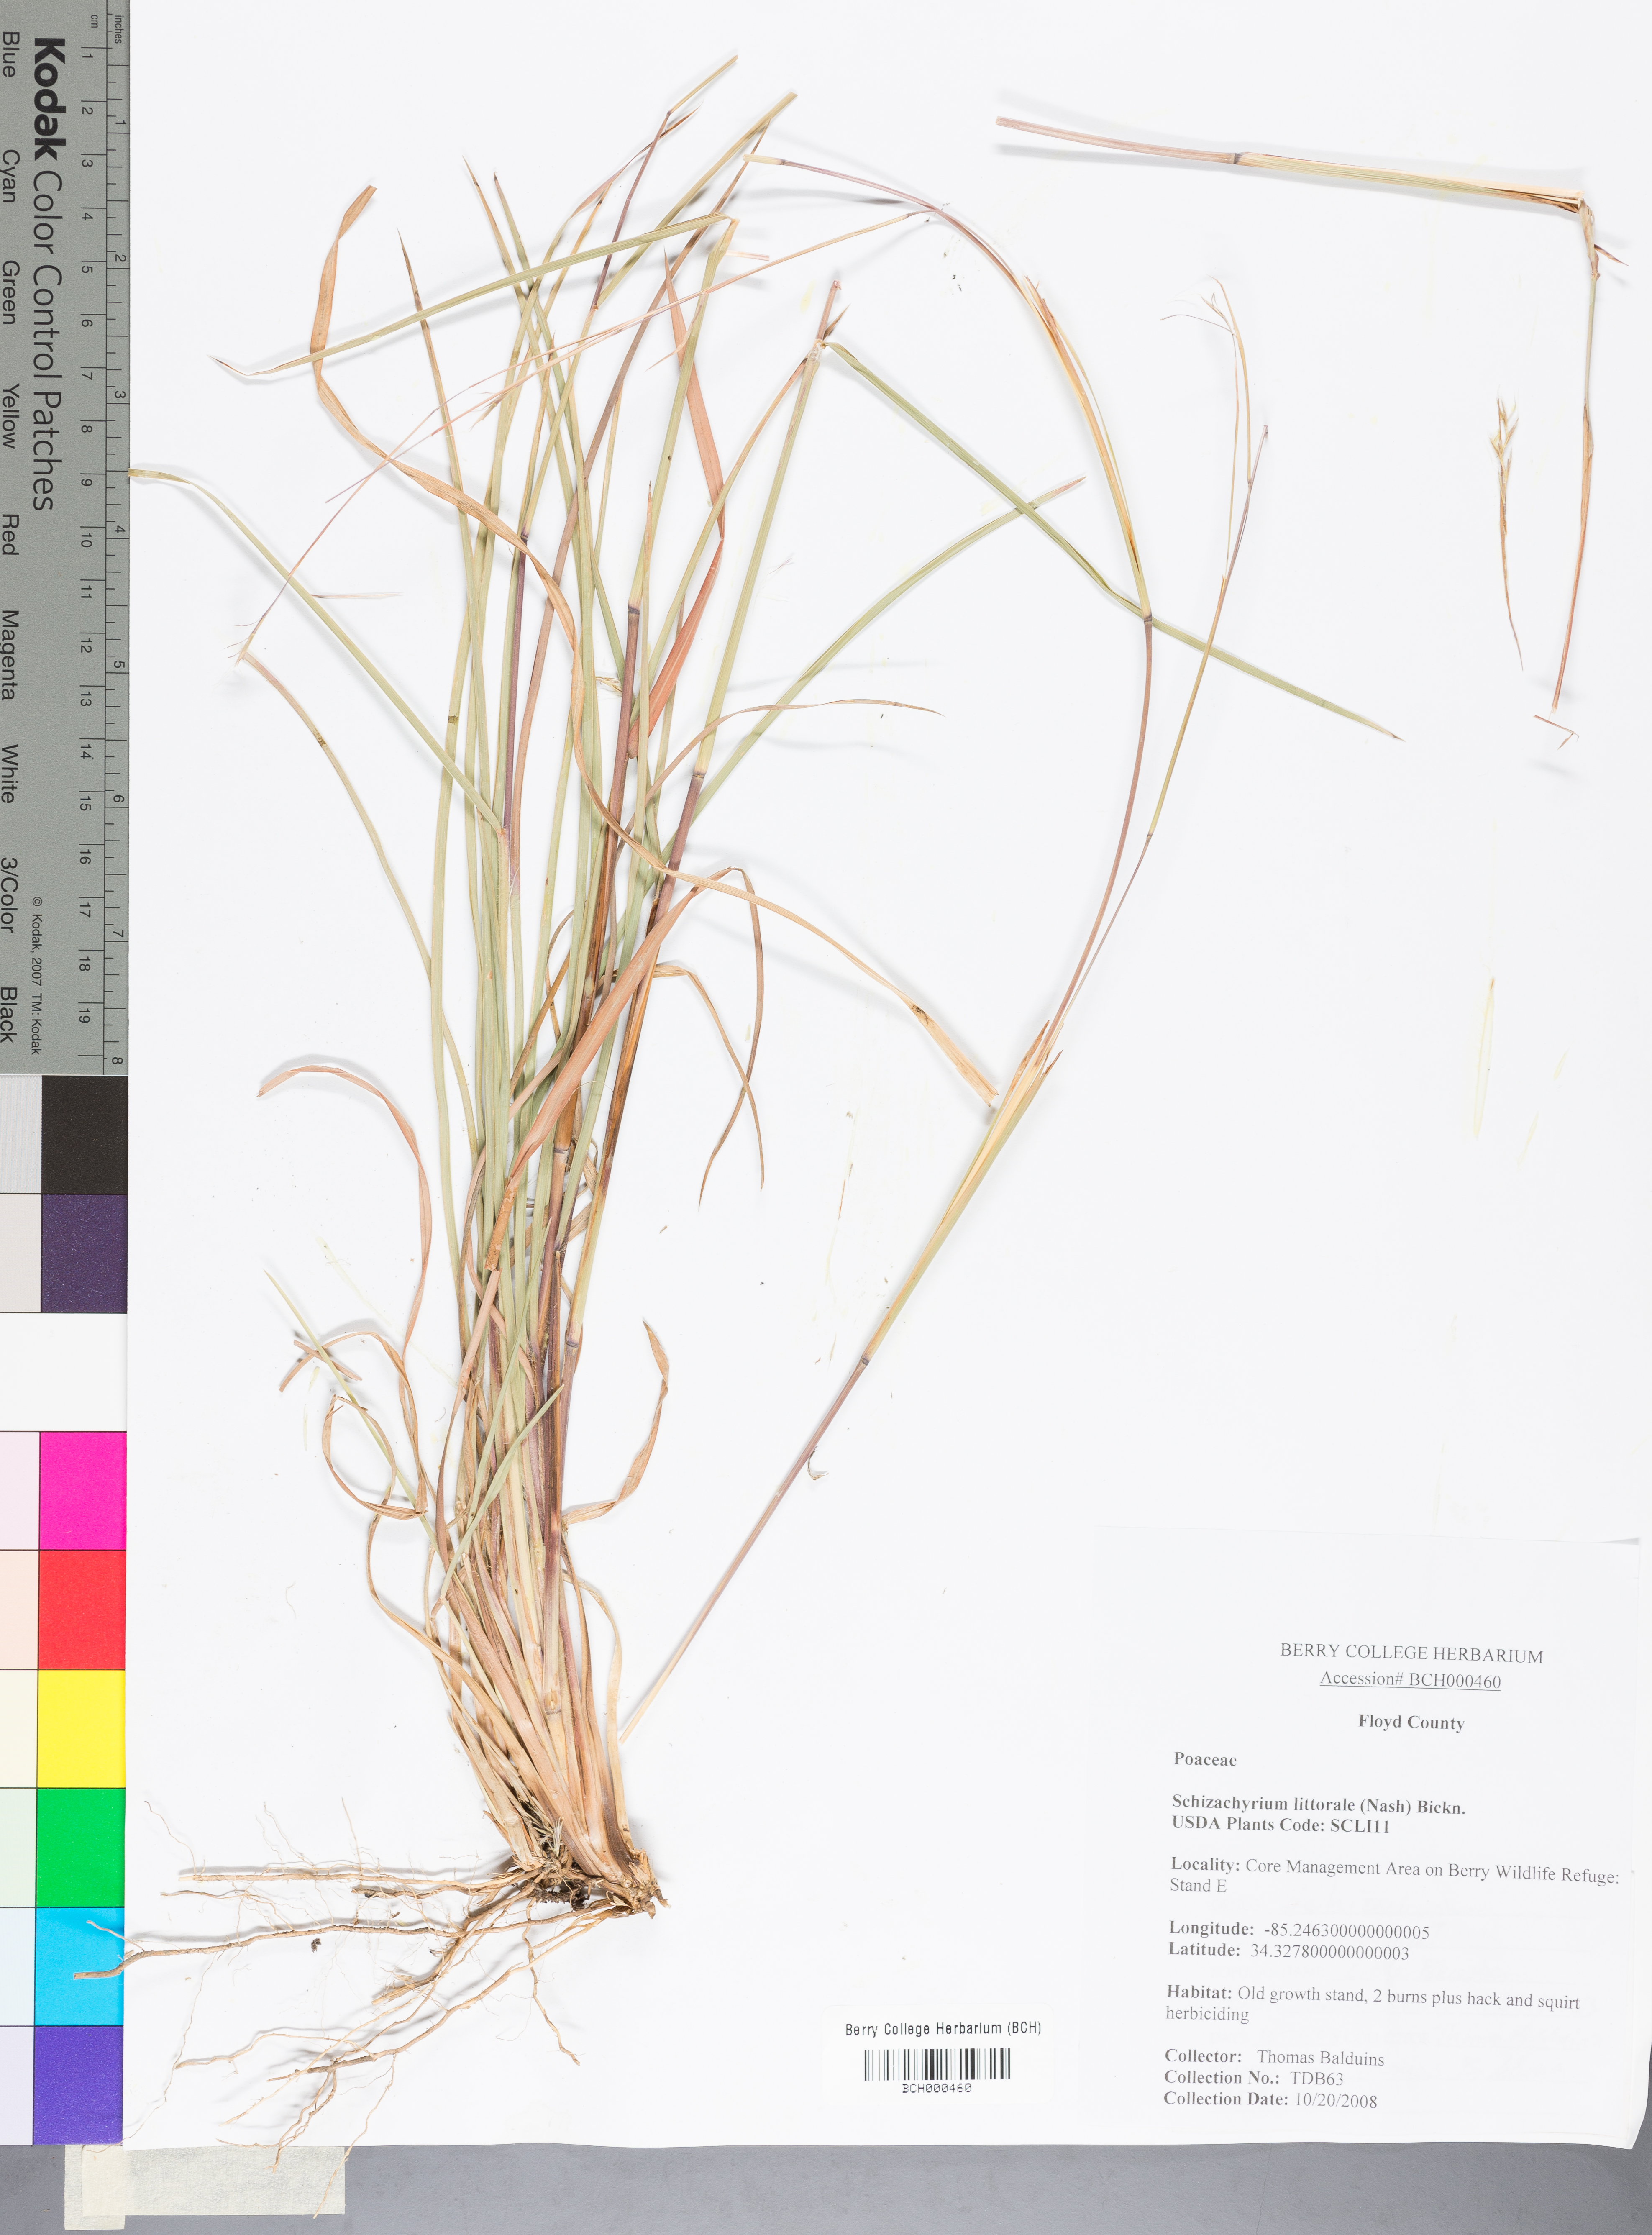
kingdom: Plantae
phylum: Tracheophyta
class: Liliopsida
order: Poales
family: Poaceae
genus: Schizachyrium
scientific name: Schizachyrium scoparium
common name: Little bluestem
